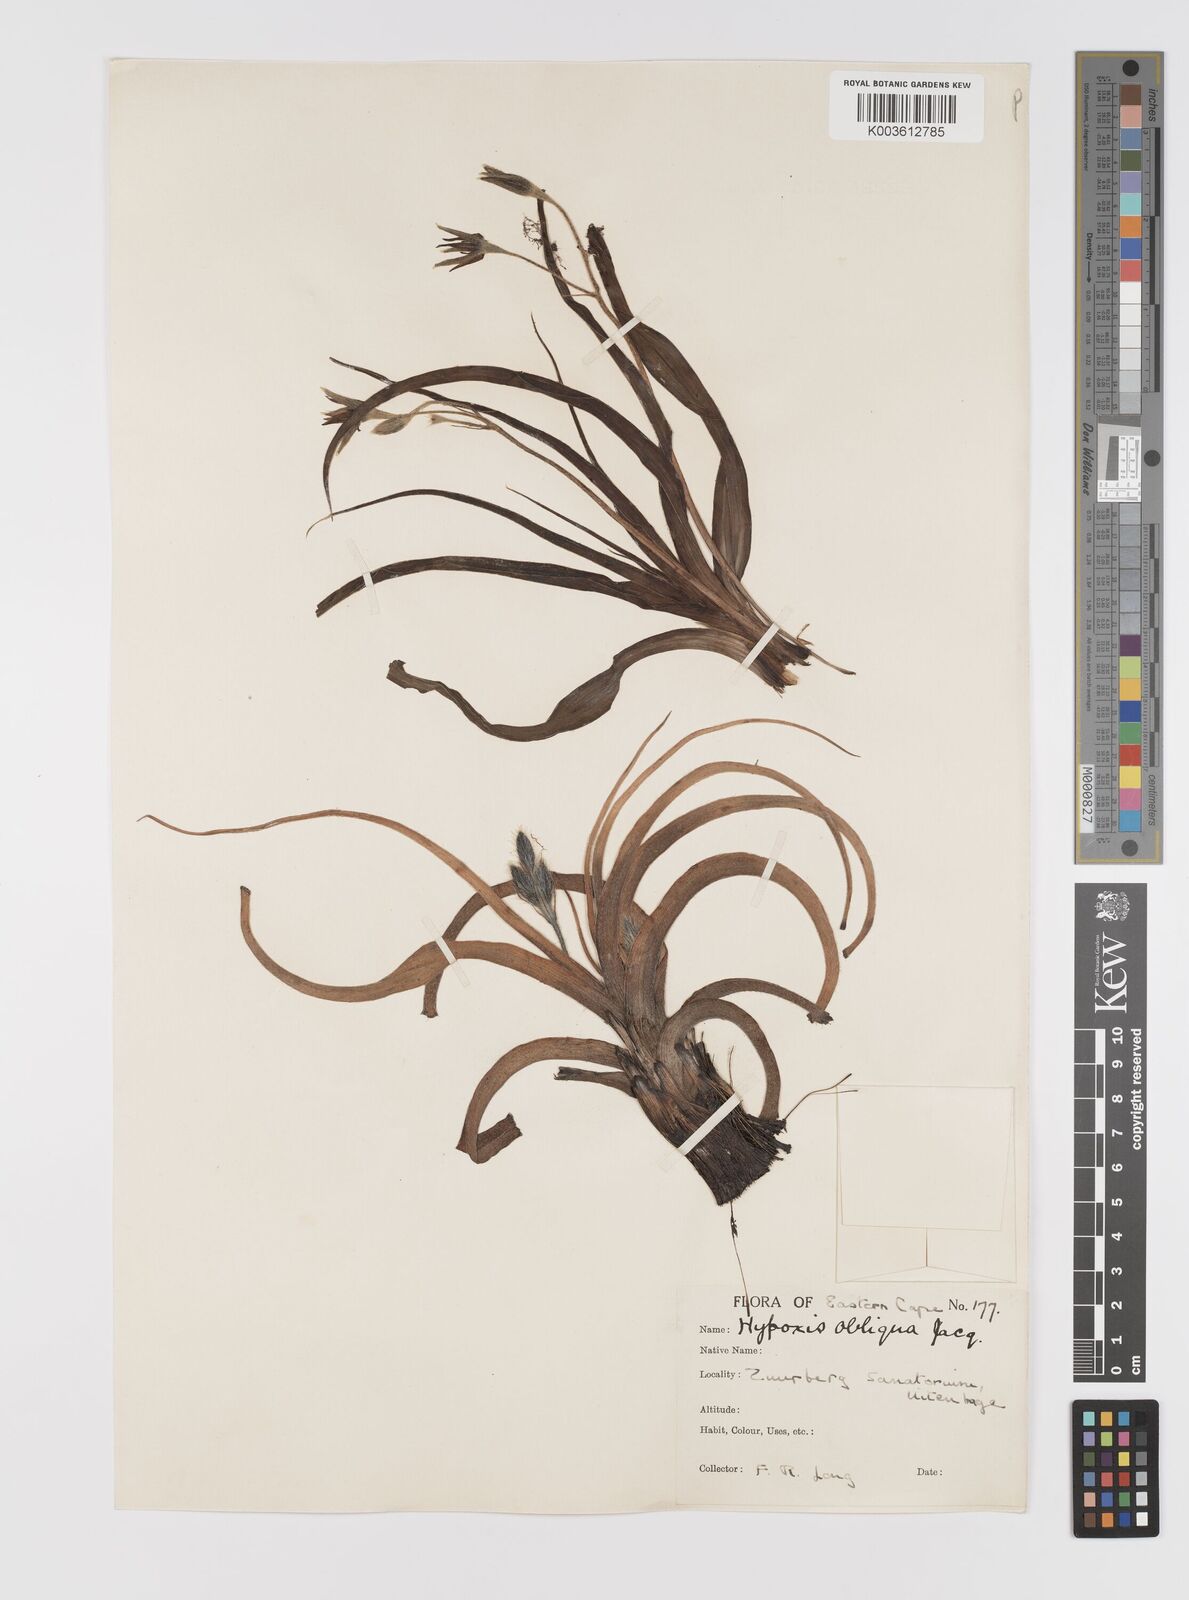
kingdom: Plantae
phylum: Tracheophyta
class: Liliopsida
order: Asparagales
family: Hypoxidaceae
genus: Hypoxis
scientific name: Hypoxis villosa
